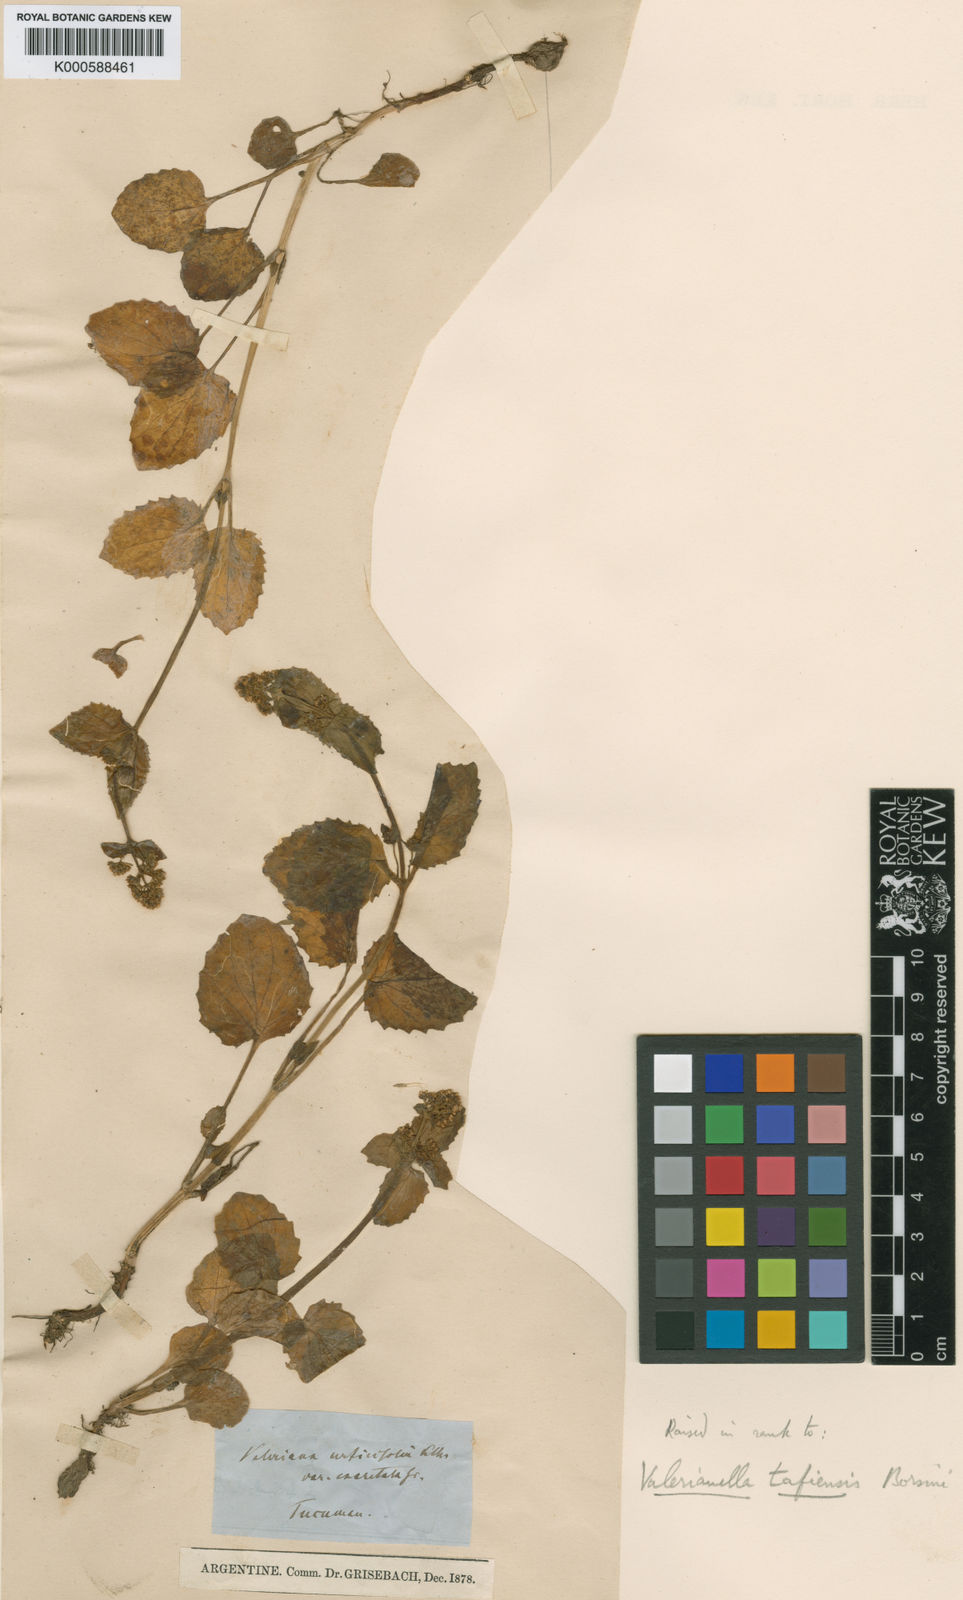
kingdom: Plantae
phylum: Tracheophyta
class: Magnoliopsida
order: Dipsacales
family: Caprifoliaceae
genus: Valeriana
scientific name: Valeriana tafiensis
